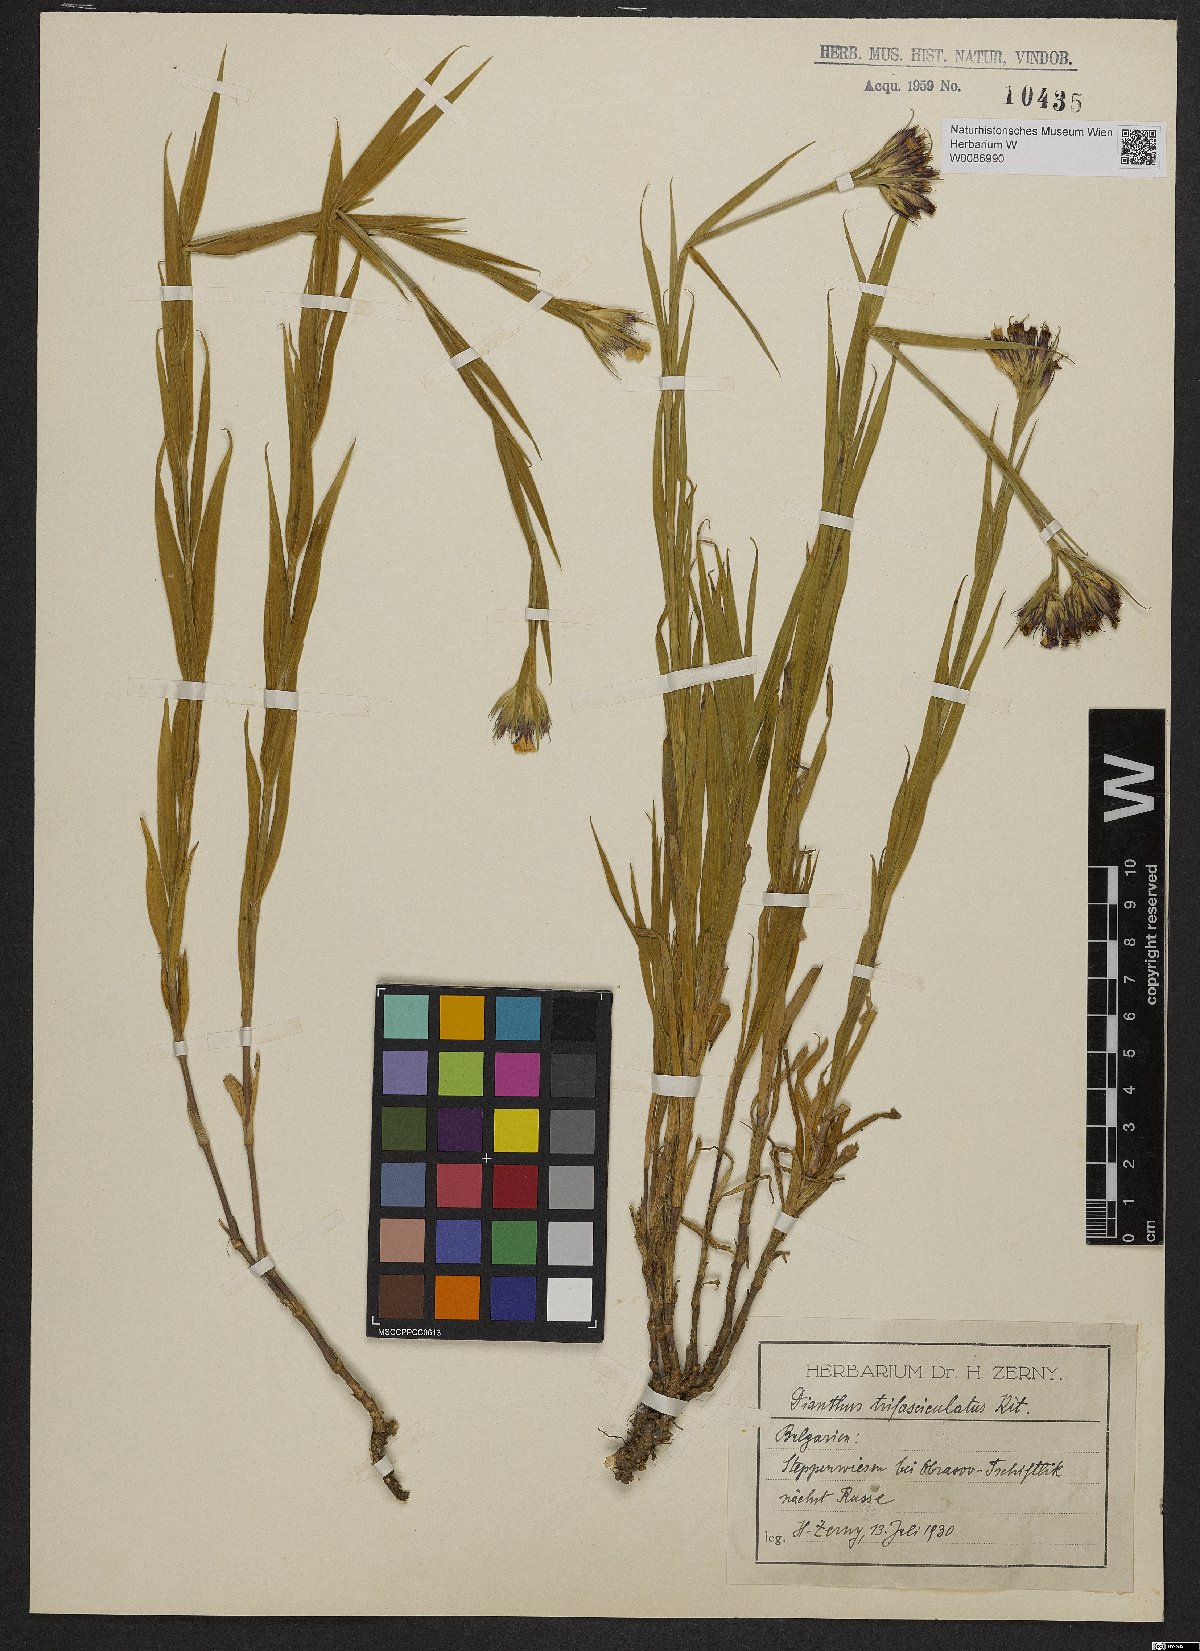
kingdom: Plantae
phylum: Tracheophyta
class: Magnoliopsida
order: Caryophyllales
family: Caryophyllaceae
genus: Dianthus
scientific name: Dianthus trifasciculatus
